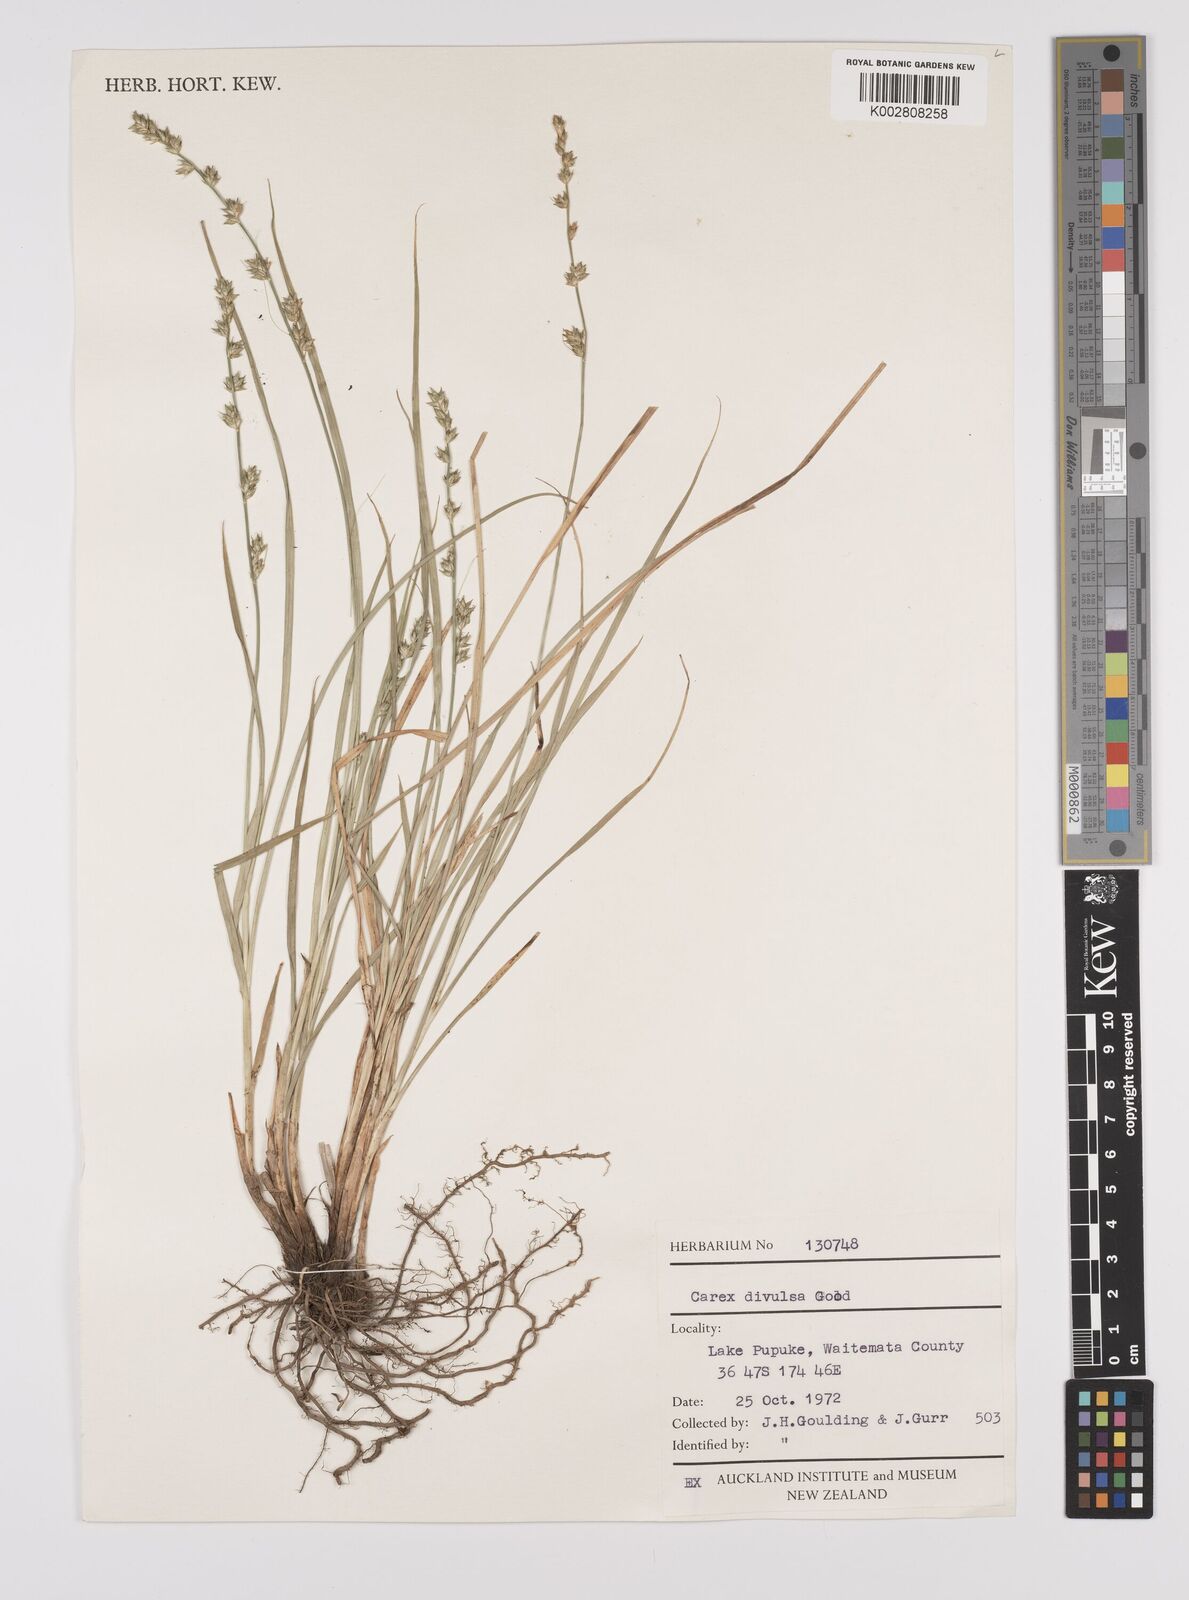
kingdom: Plantae
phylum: Tracheophyta
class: Liliopsida
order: Poales
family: Cyperaceae
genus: Carex
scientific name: Carex divulsa
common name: Grassland sedge
